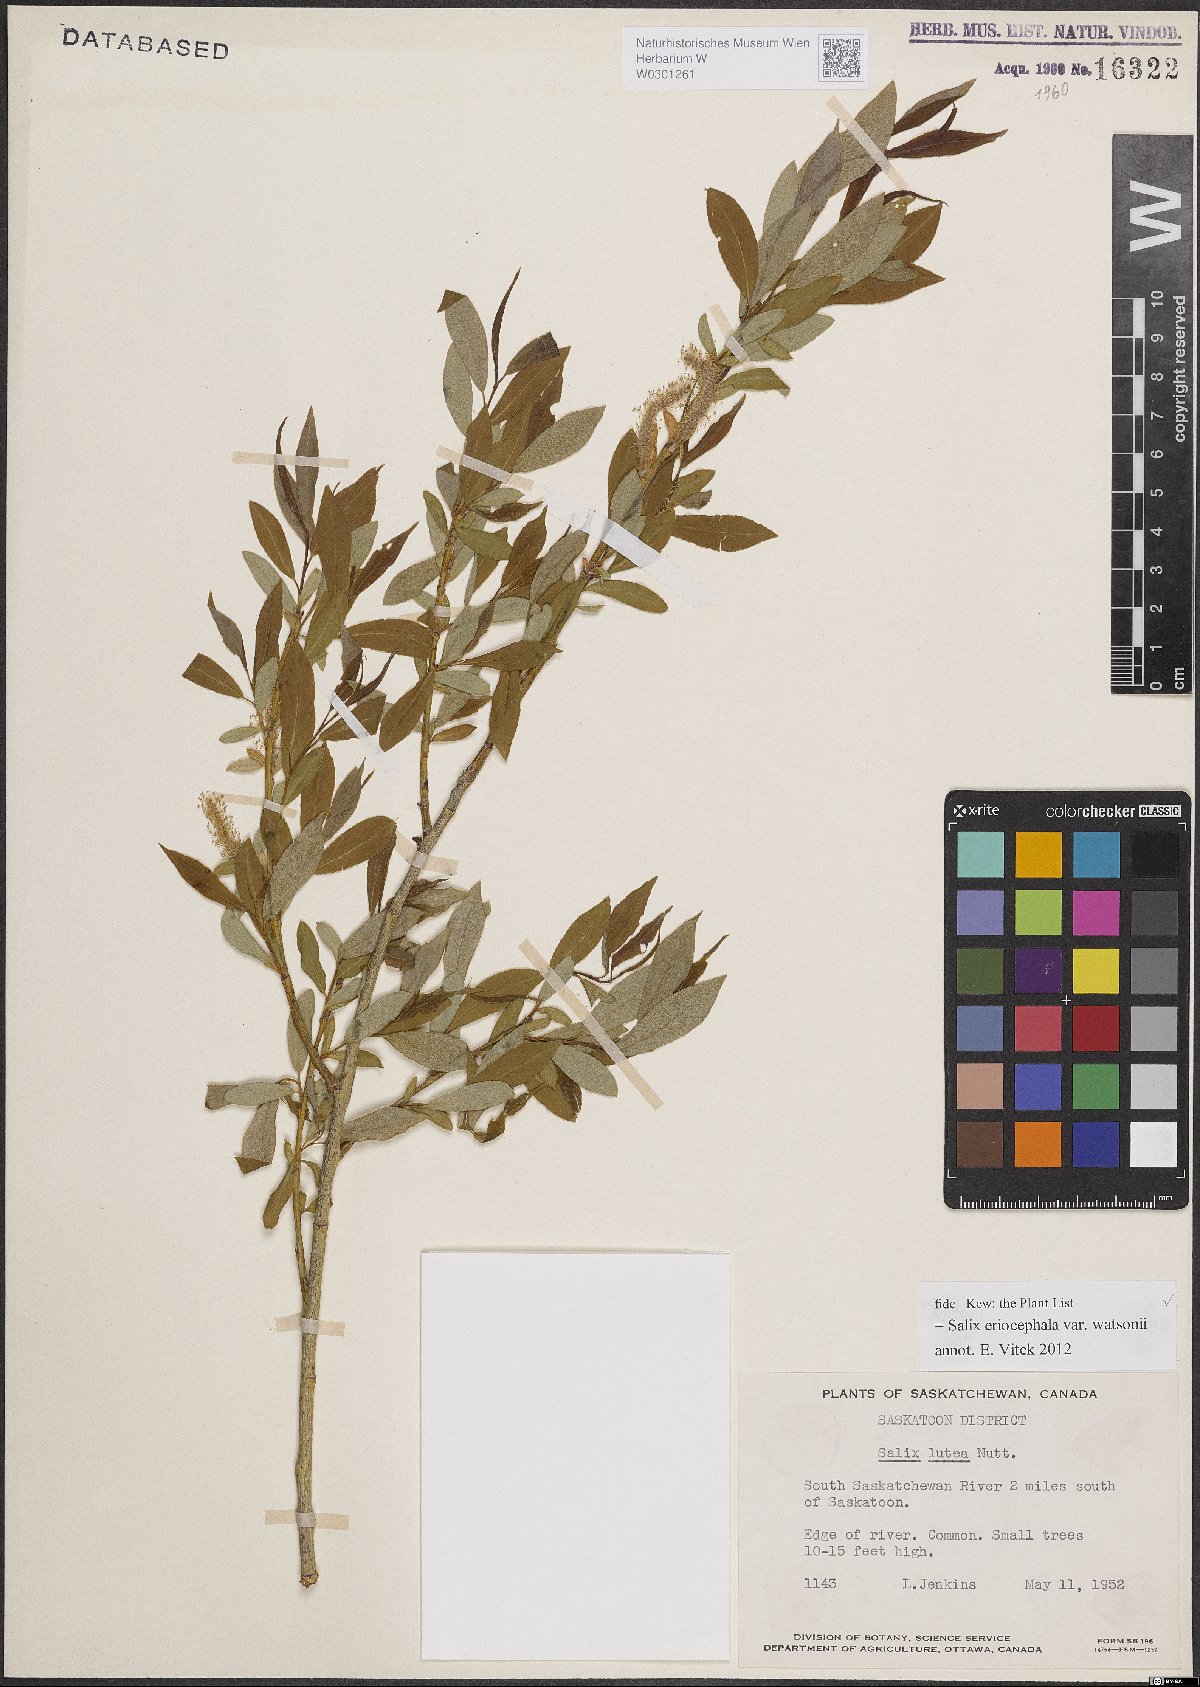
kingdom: Plantae
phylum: Tracheophyta
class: Magnoliopsida
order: Malpighiales
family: Salicaceae
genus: Salix
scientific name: Salix lutea
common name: Yellow willow
